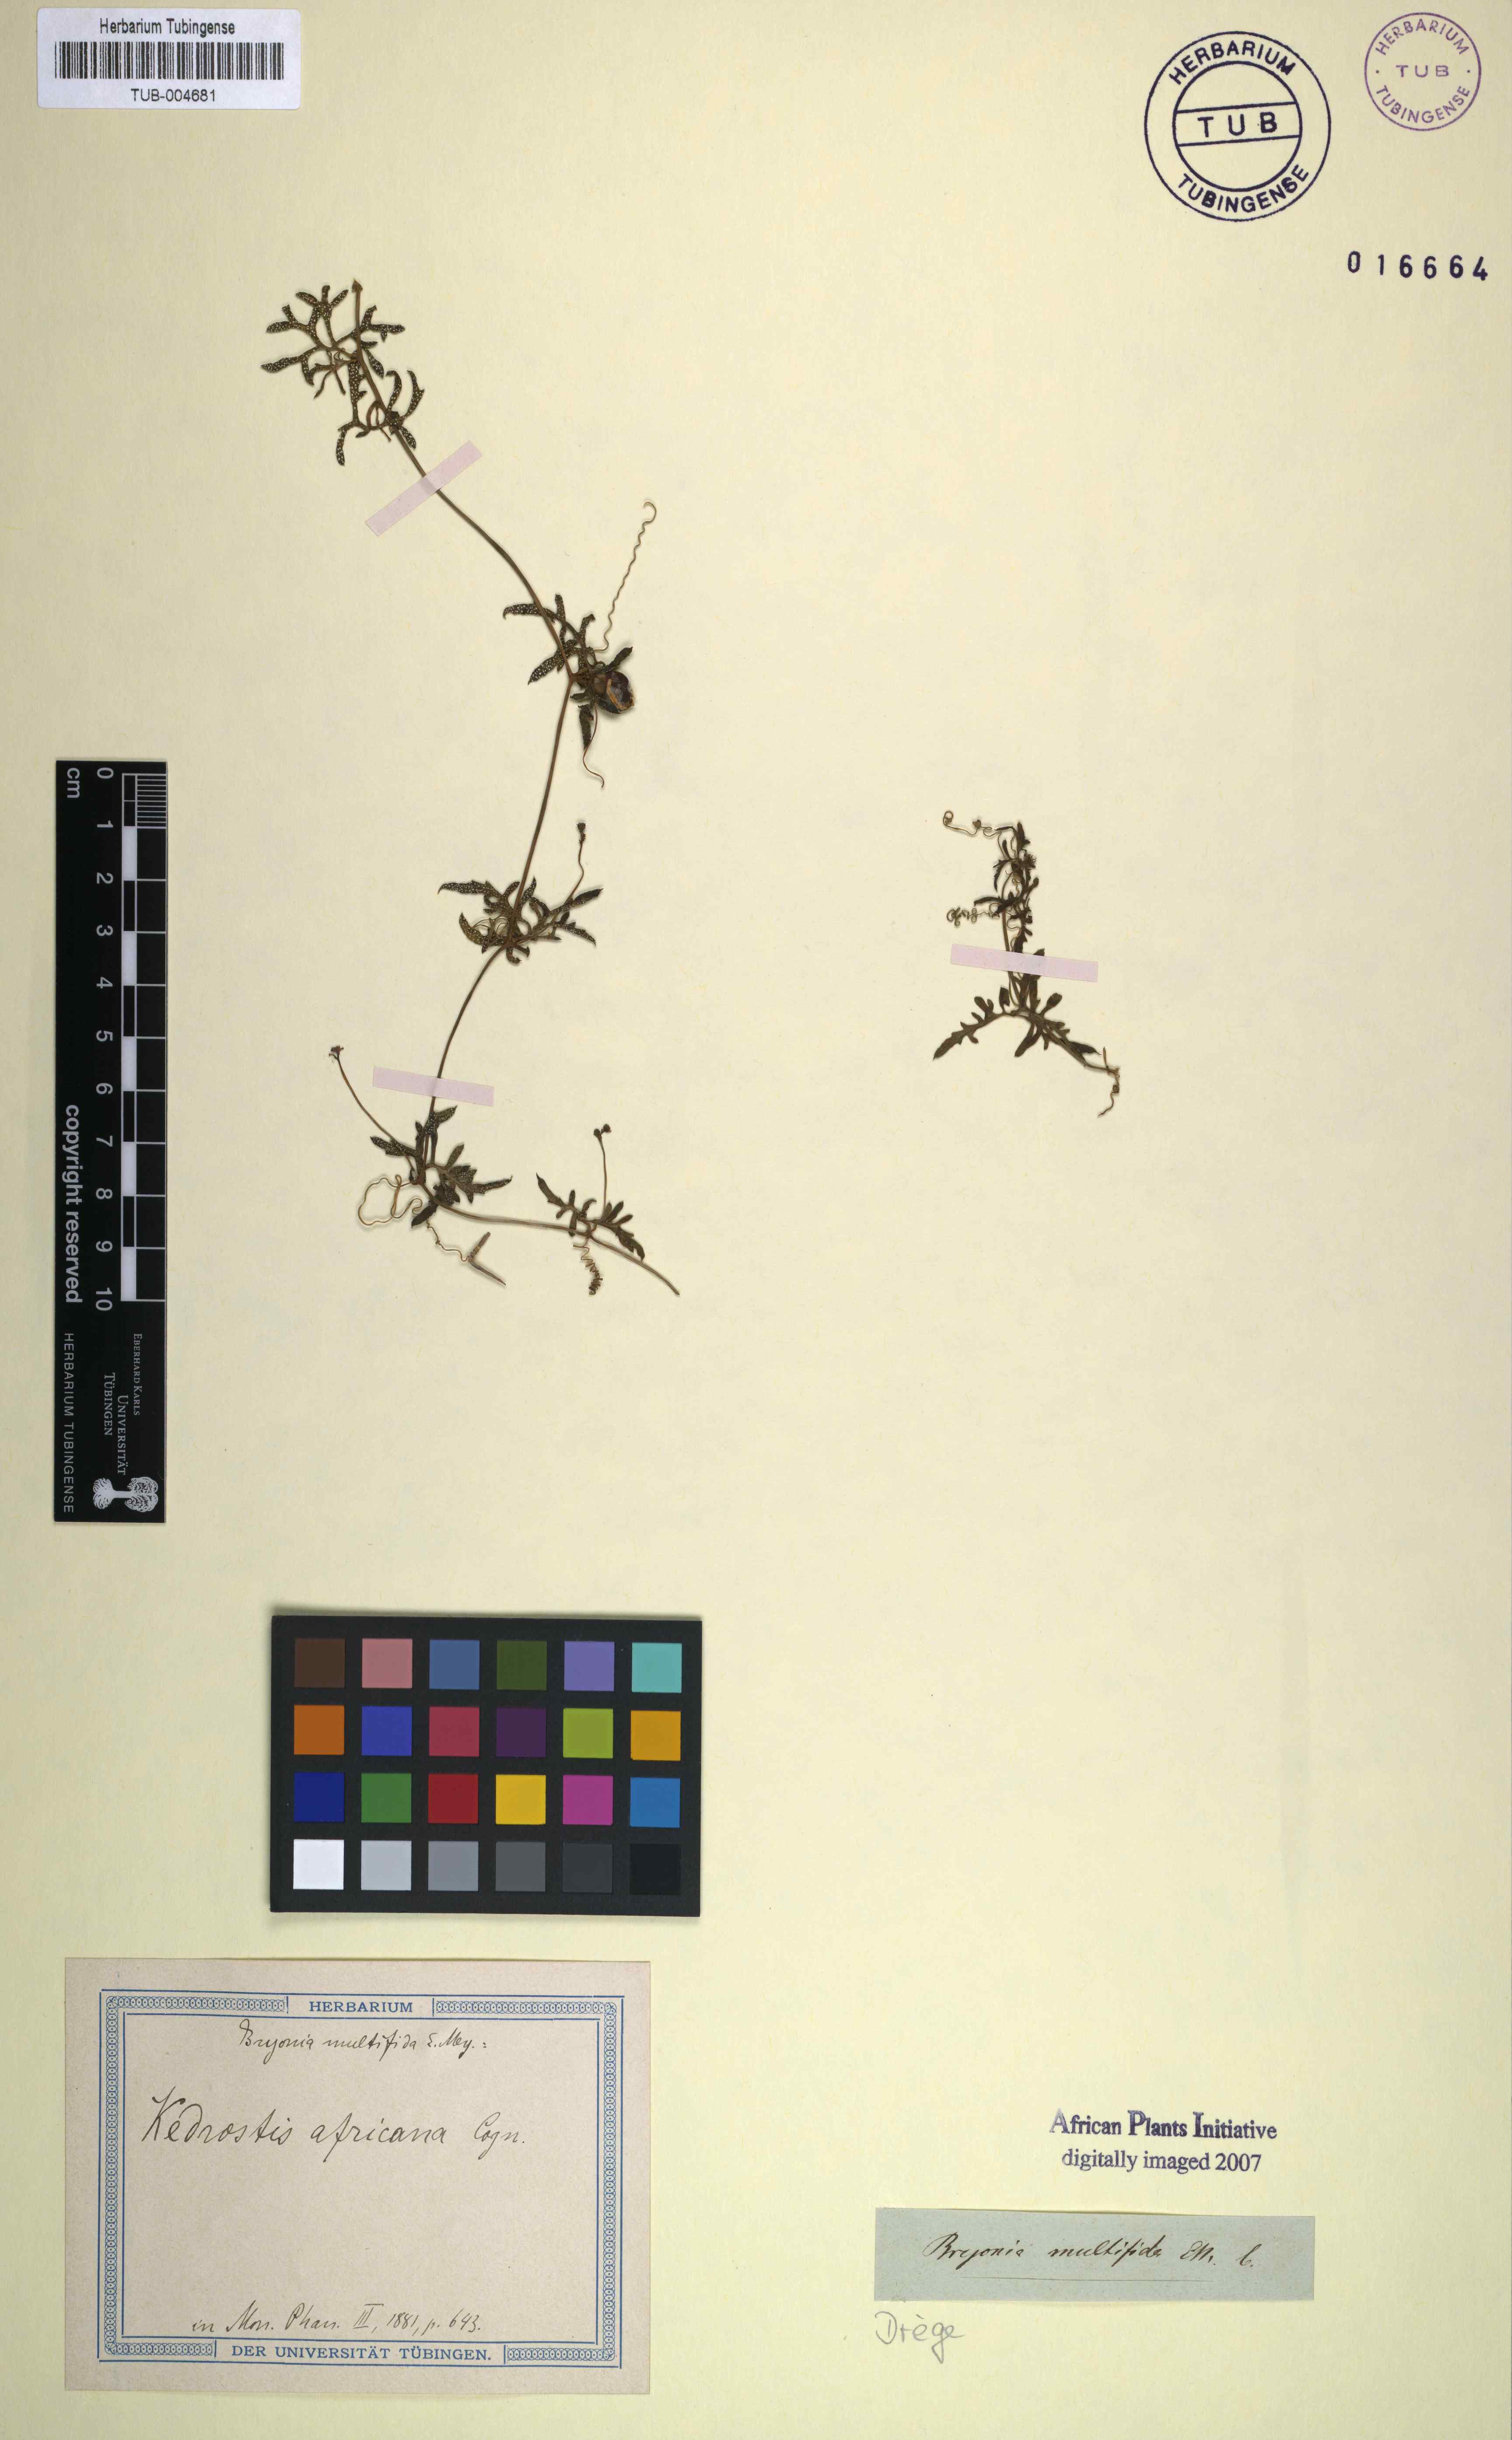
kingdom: Plantae
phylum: Tracheophyta
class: Magnoliopsida
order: Cucurbitales
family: Cucurbitaceae
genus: Kedrostis
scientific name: Kedrostis africana
